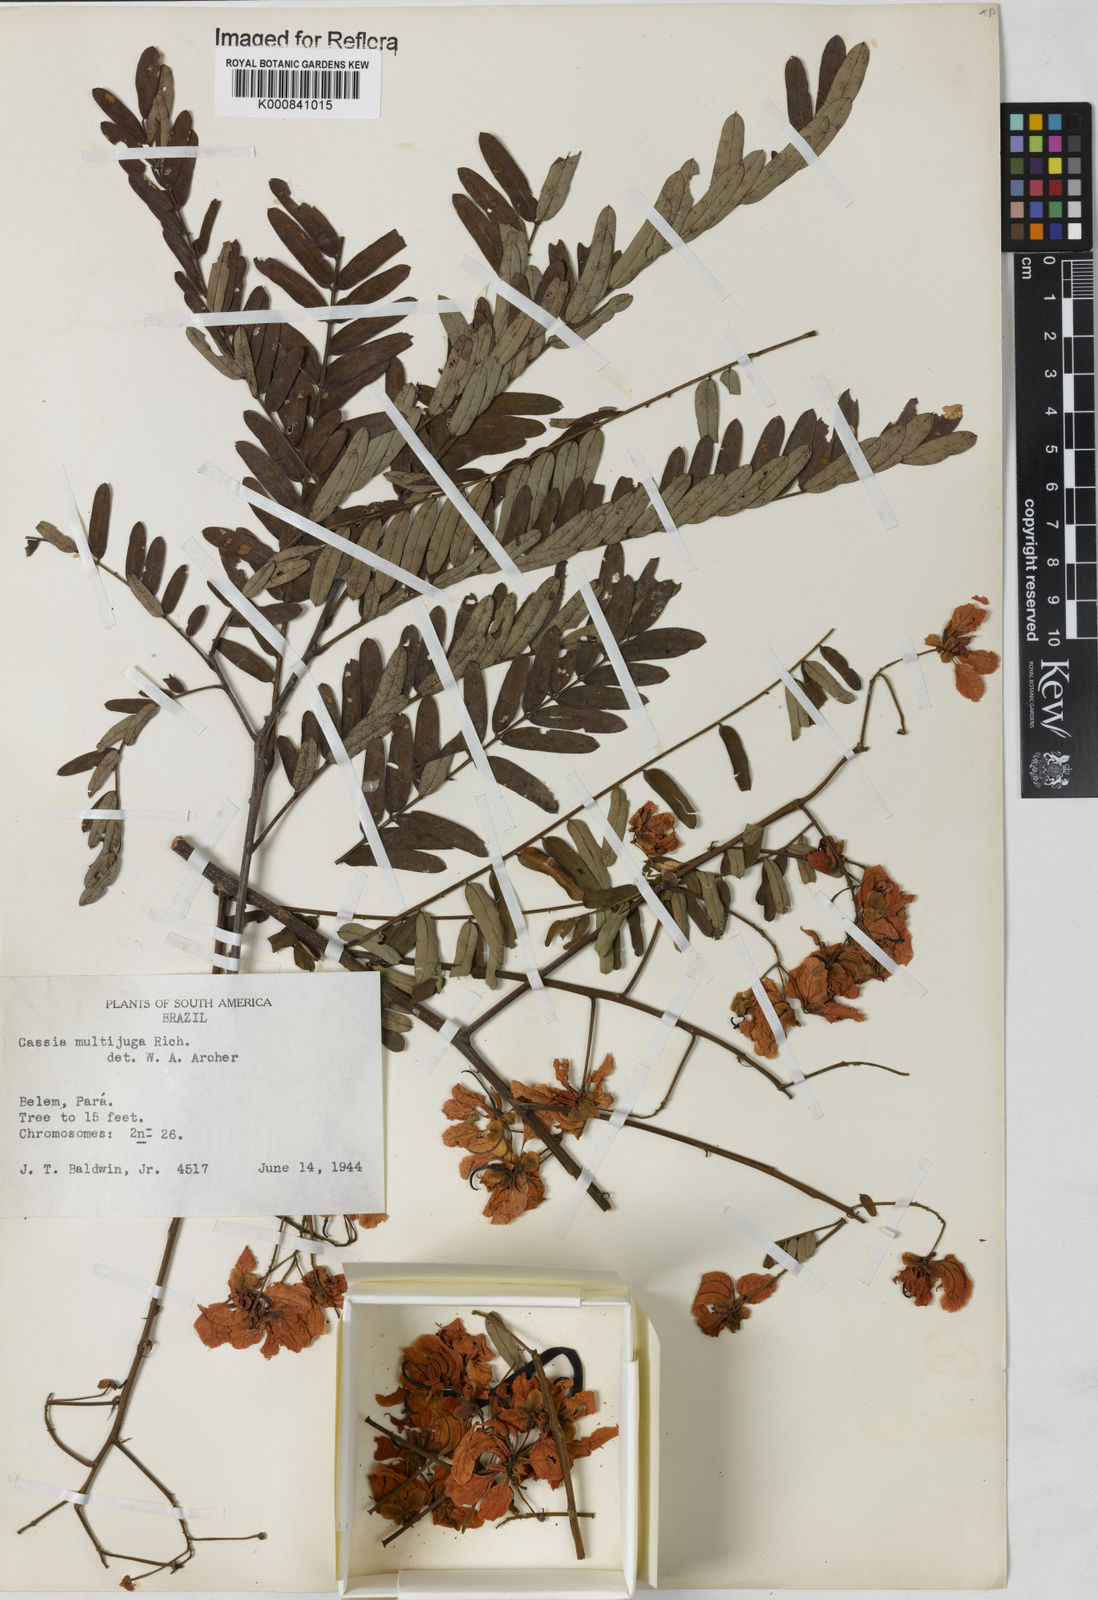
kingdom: Plantae
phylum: Tracheophyta
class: Magnoliopsida
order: Fabales
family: Fabaceae
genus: Senna
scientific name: Senna multijuga
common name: False sicklepod
